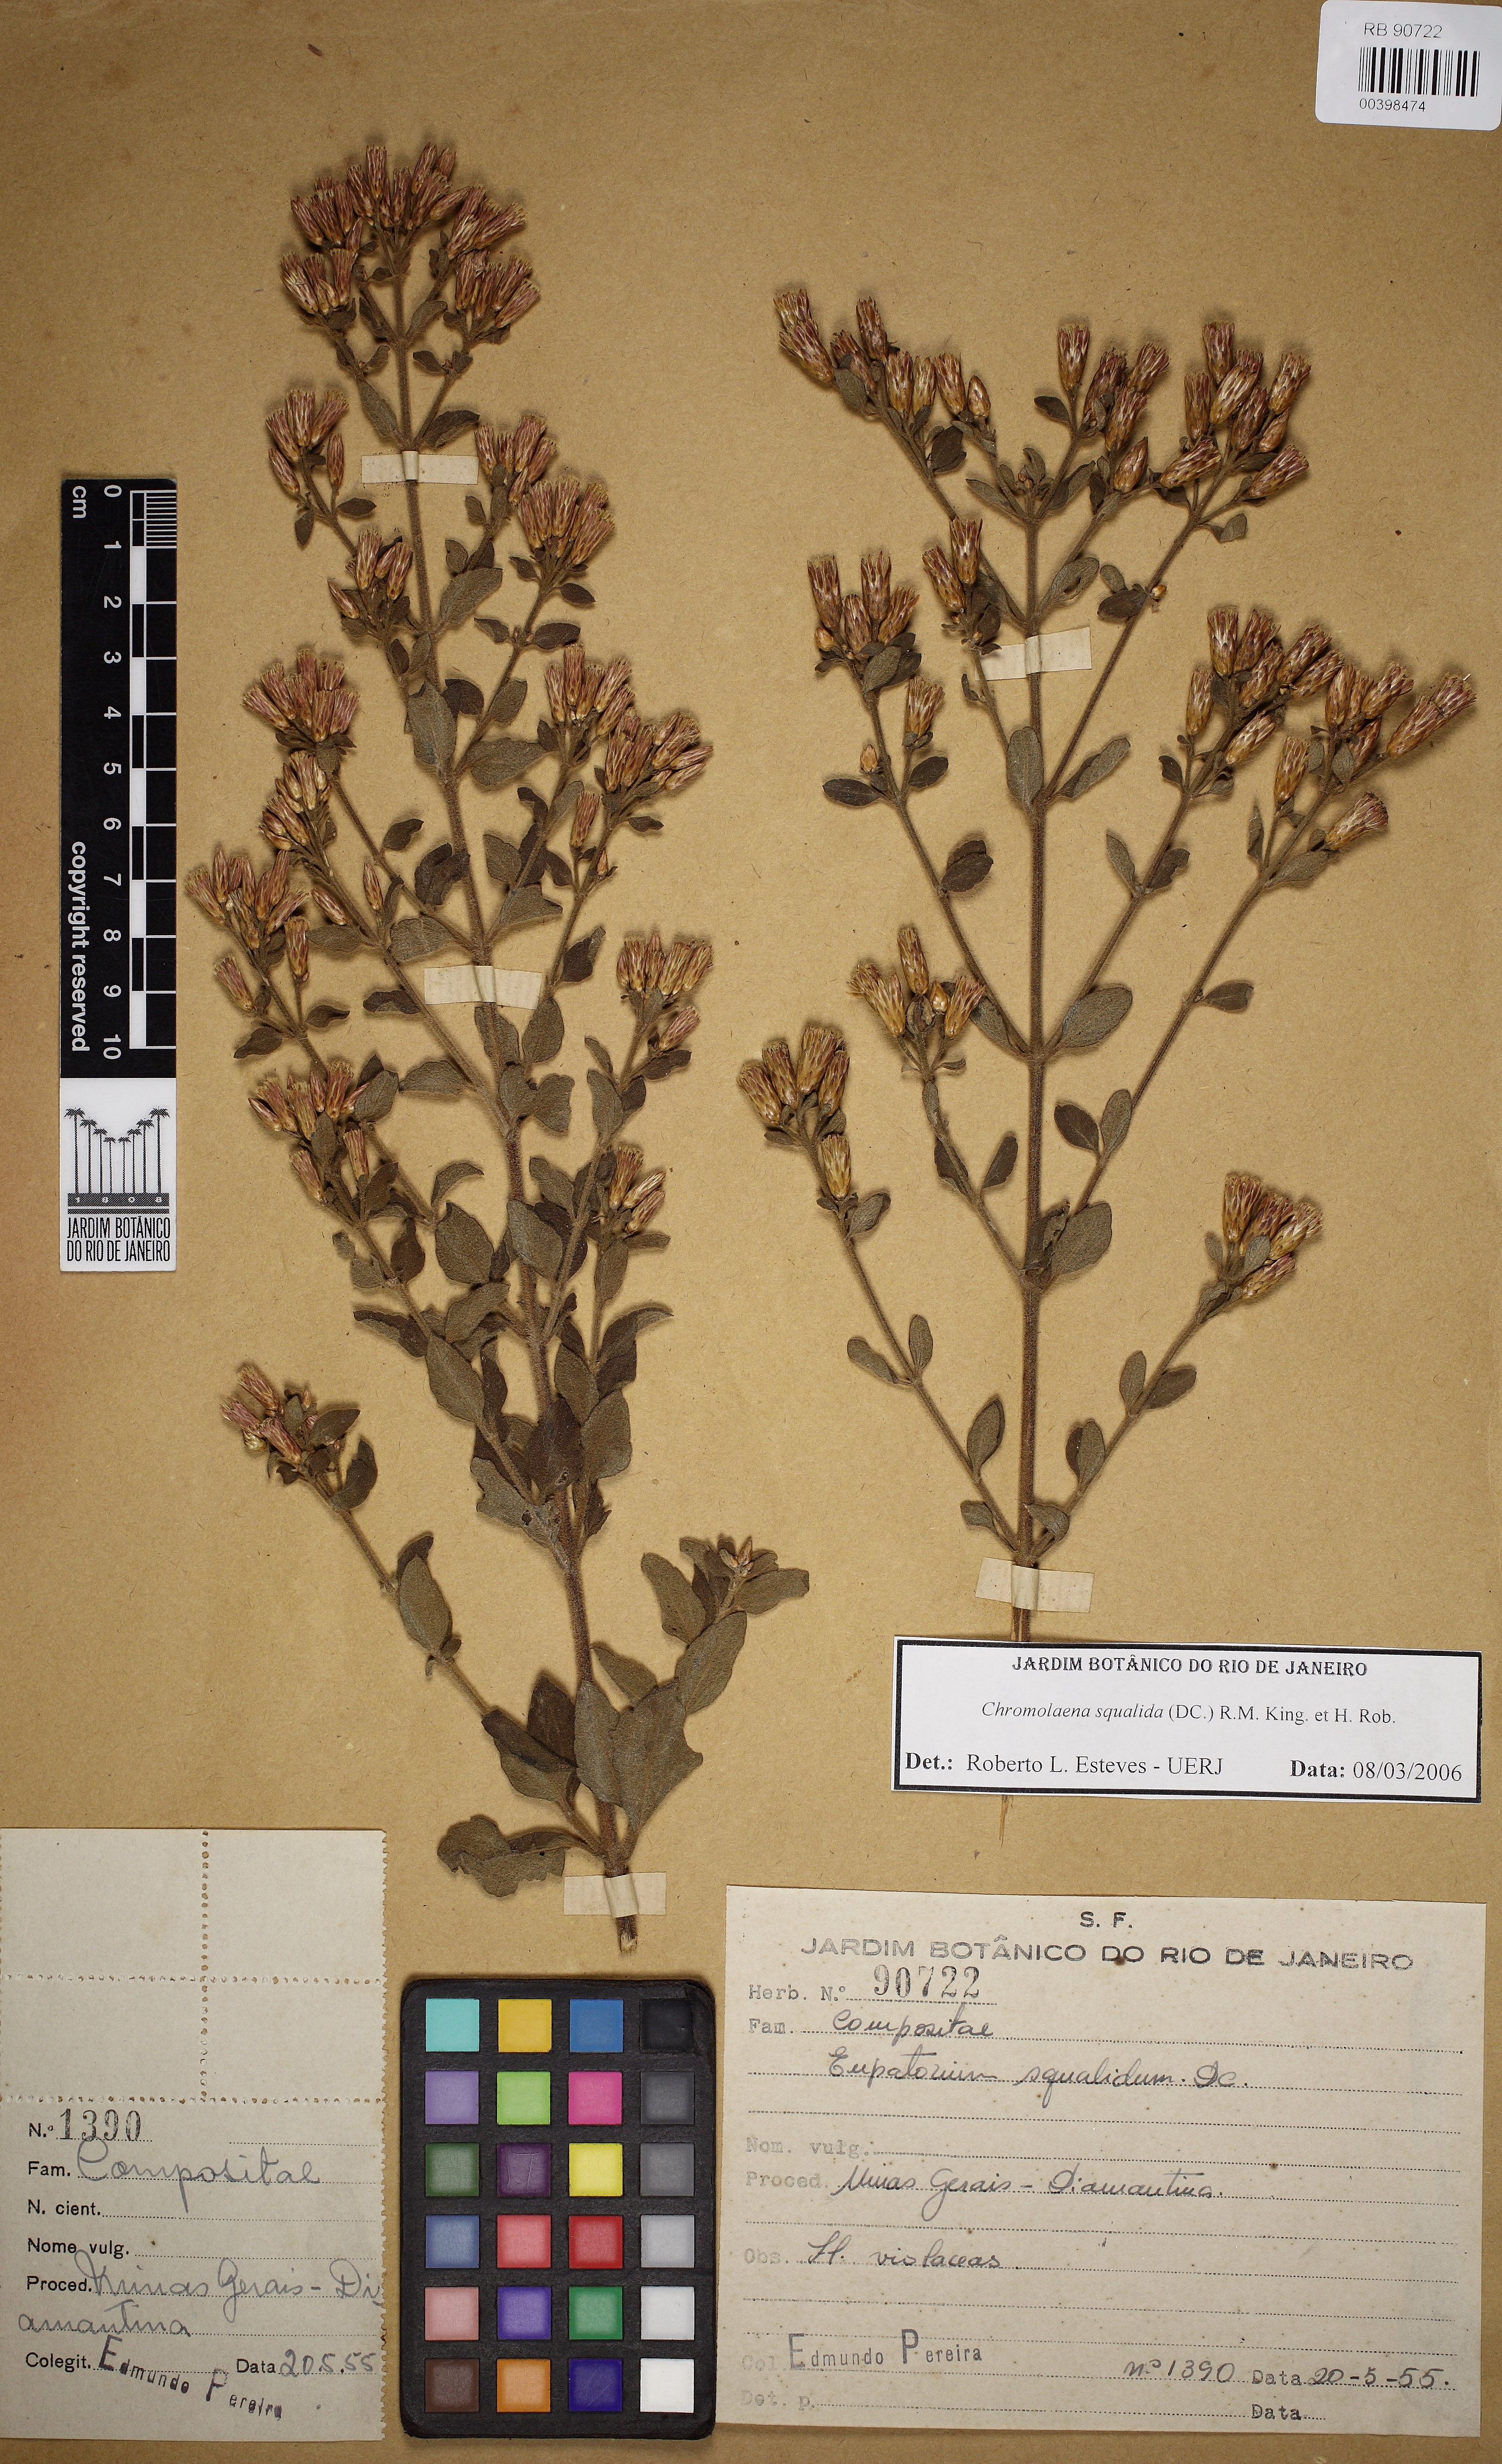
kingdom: Plantae
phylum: Tracheophyta
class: Magnoliopsida
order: Asterales
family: Asteraceae
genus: Chromolaena
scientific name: Chromolaena squalida
